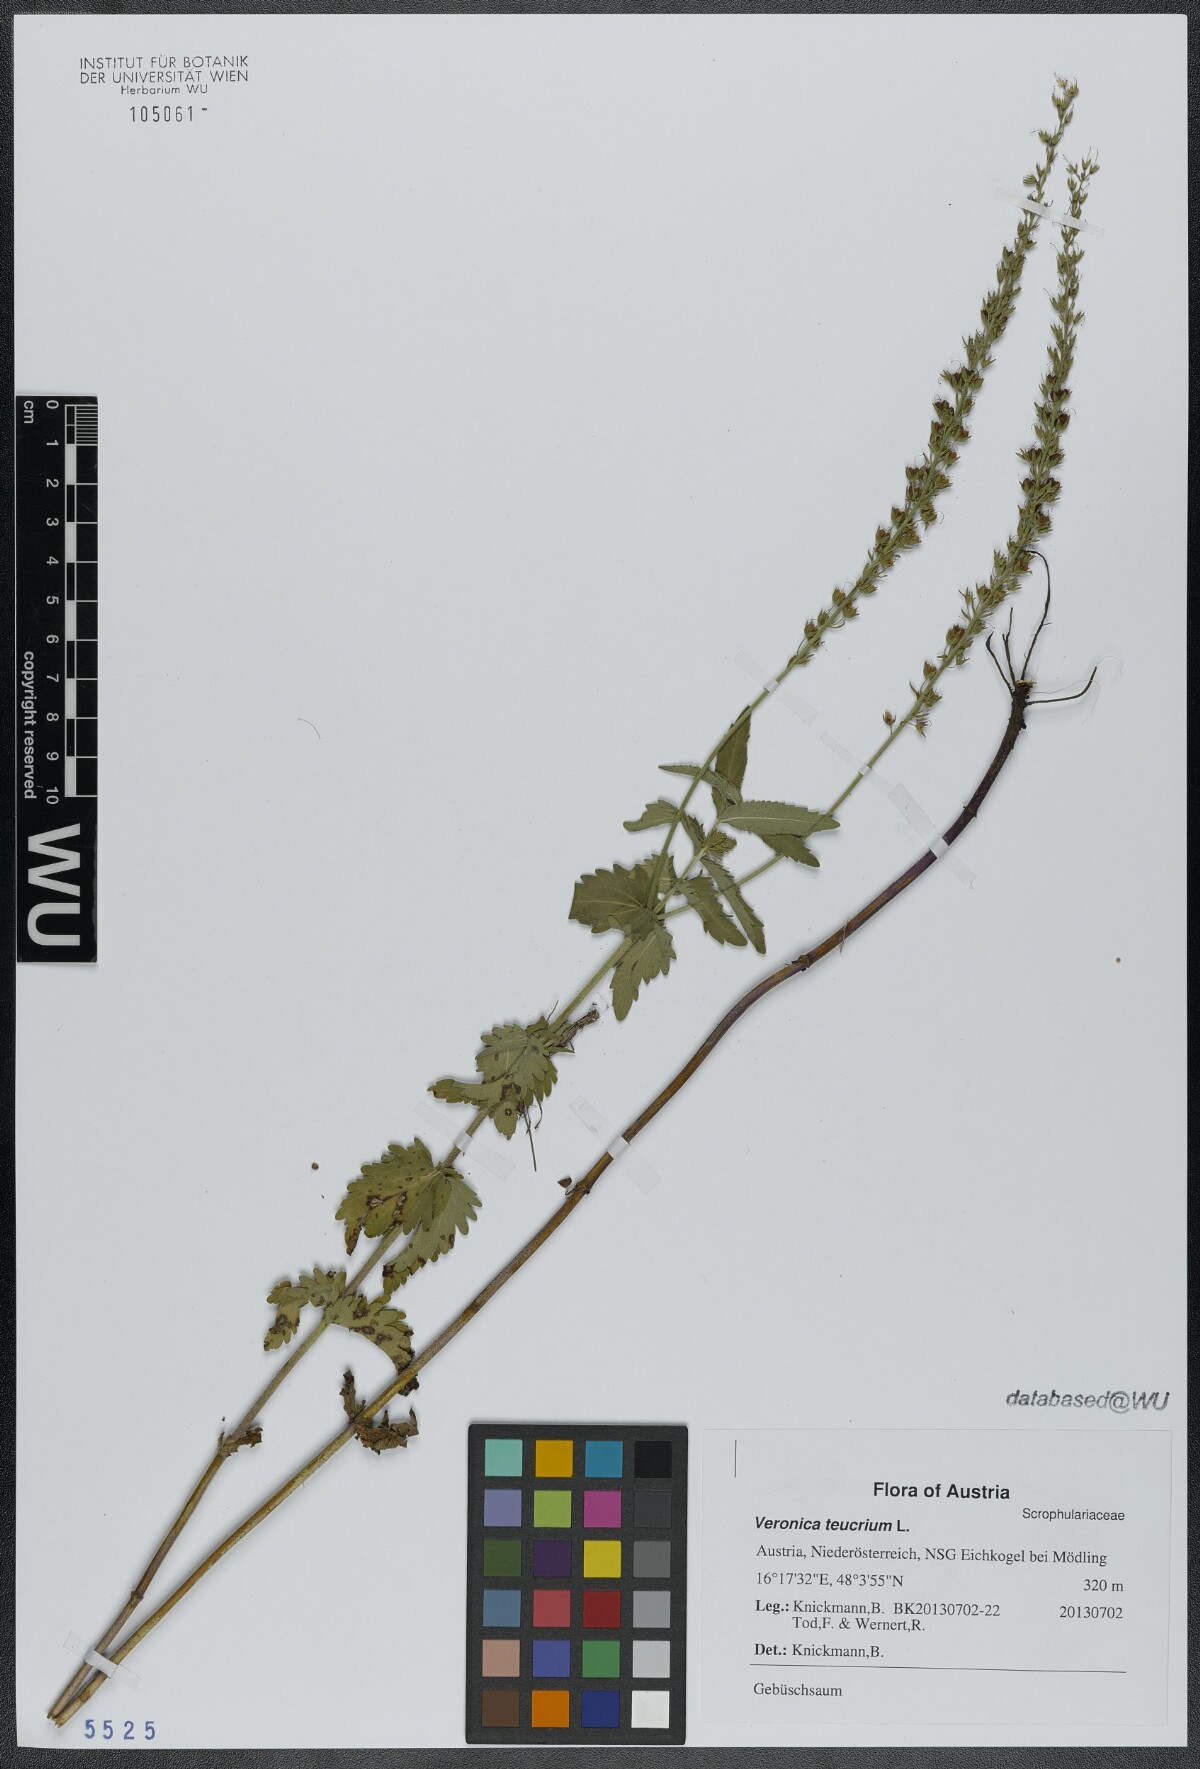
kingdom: Plantae
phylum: Tracheophyta
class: Magnoliopsida
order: Lamiales
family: Plantaginaceae
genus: Veronica
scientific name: Veronica teucrium
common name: Large speedwell
